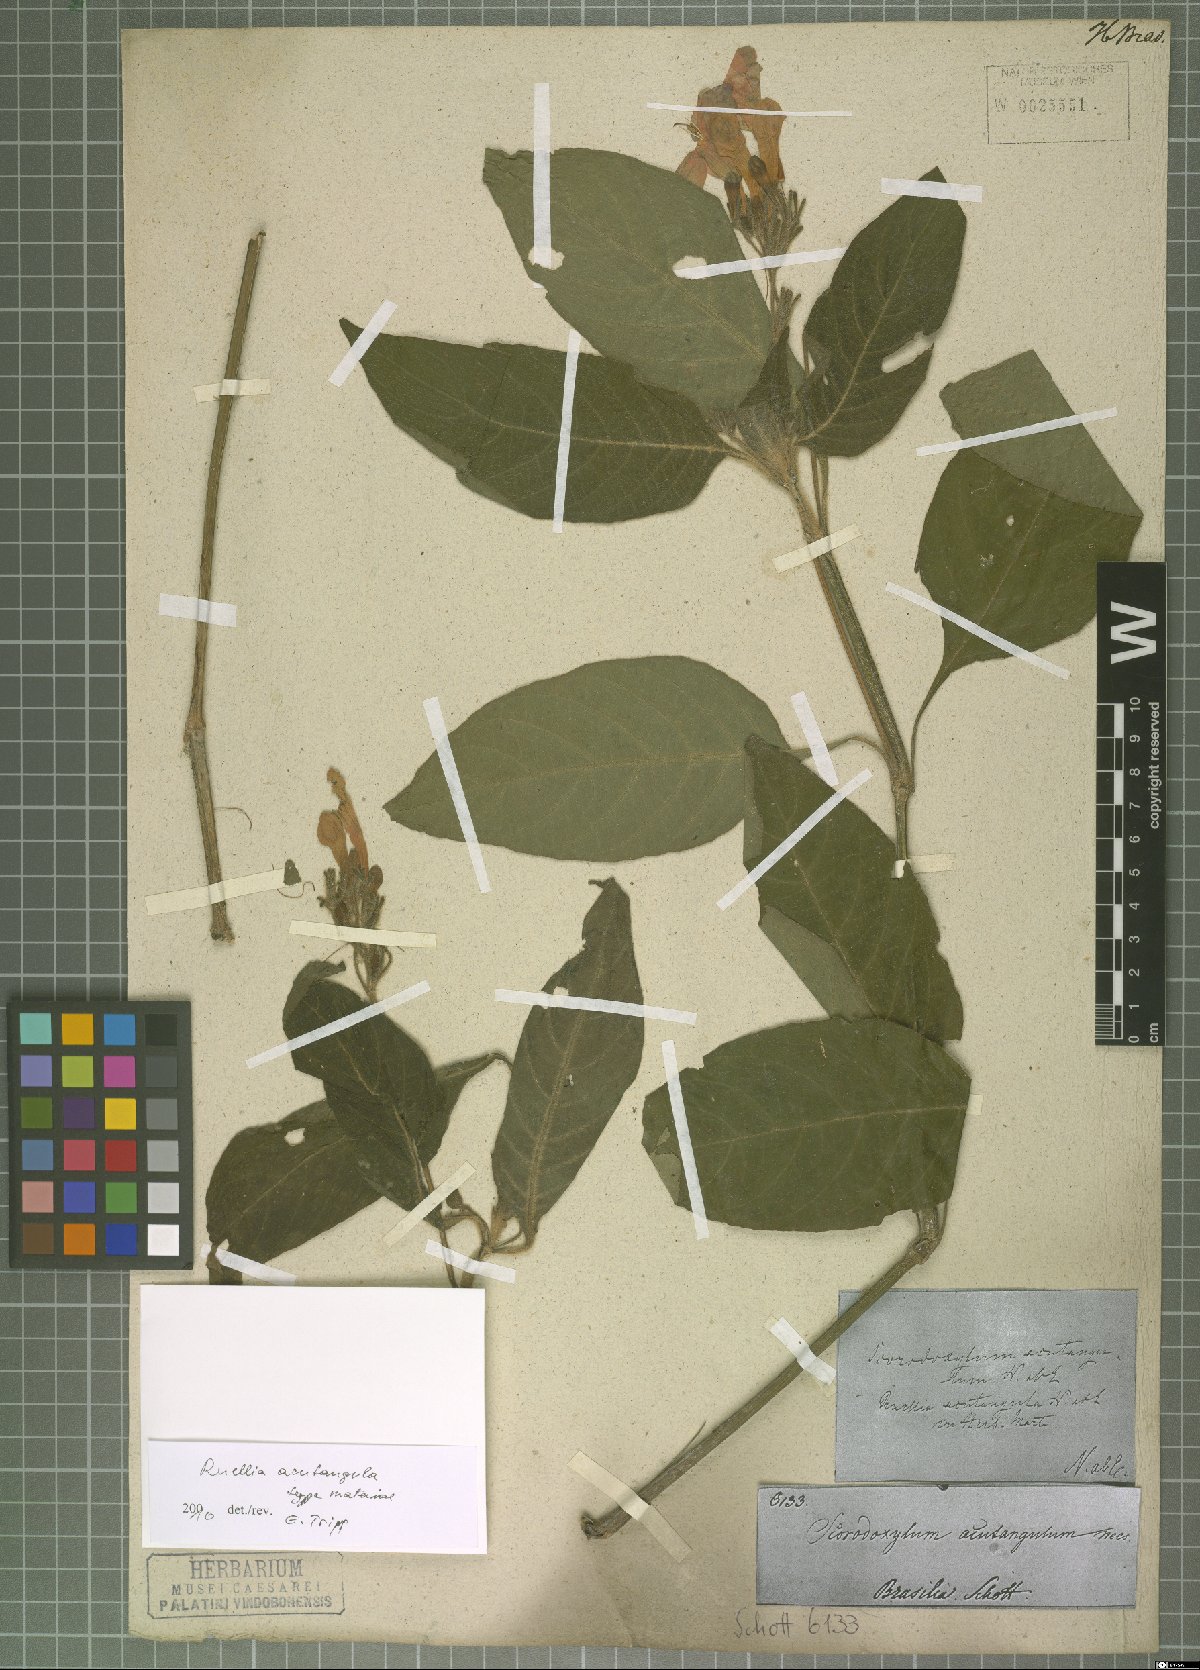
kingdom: Plantae
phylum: Tracheophyta
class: Magnoliopsida
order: Lamiales
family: Acanthaceae
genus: Ruellia
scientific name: Ruellia acutangula
